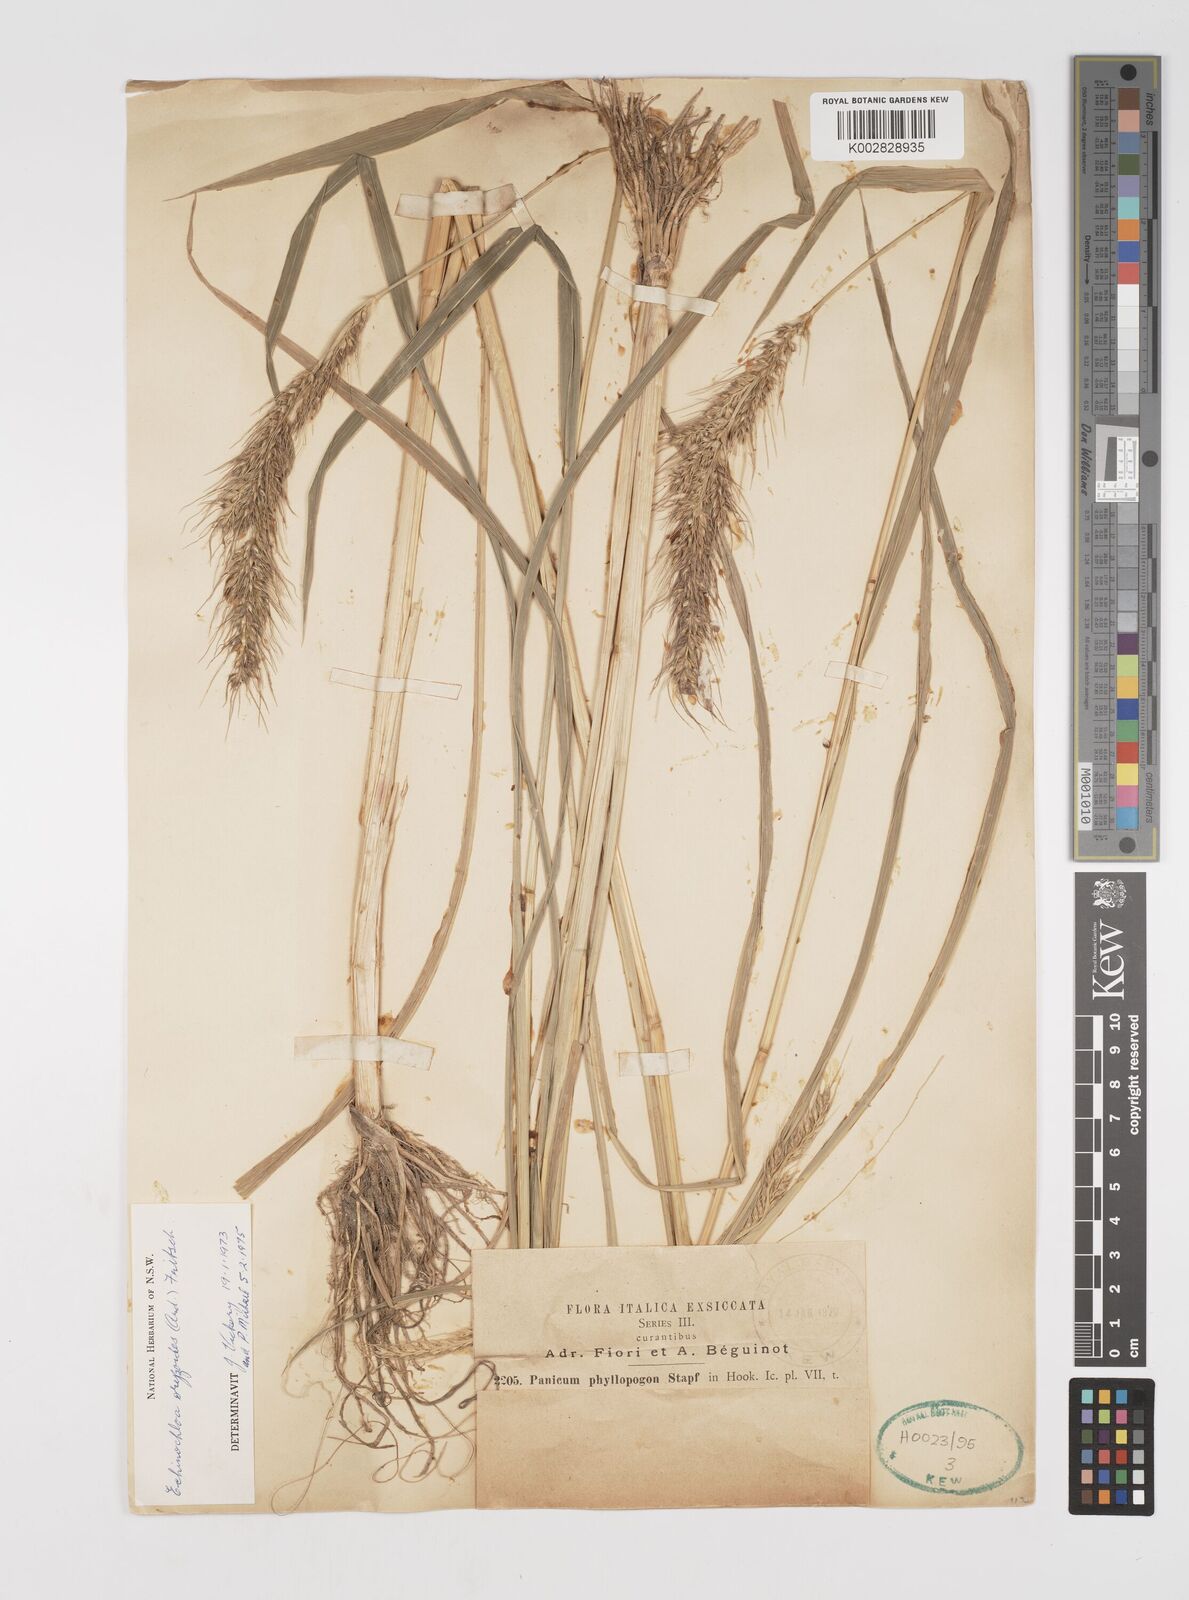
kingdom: Plantae
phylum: Tracheophyta
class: Liliopsida
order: Poales
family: Poaceae
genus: Echinochloa
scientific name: Echinochloa oryzoides
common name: Early water grass
